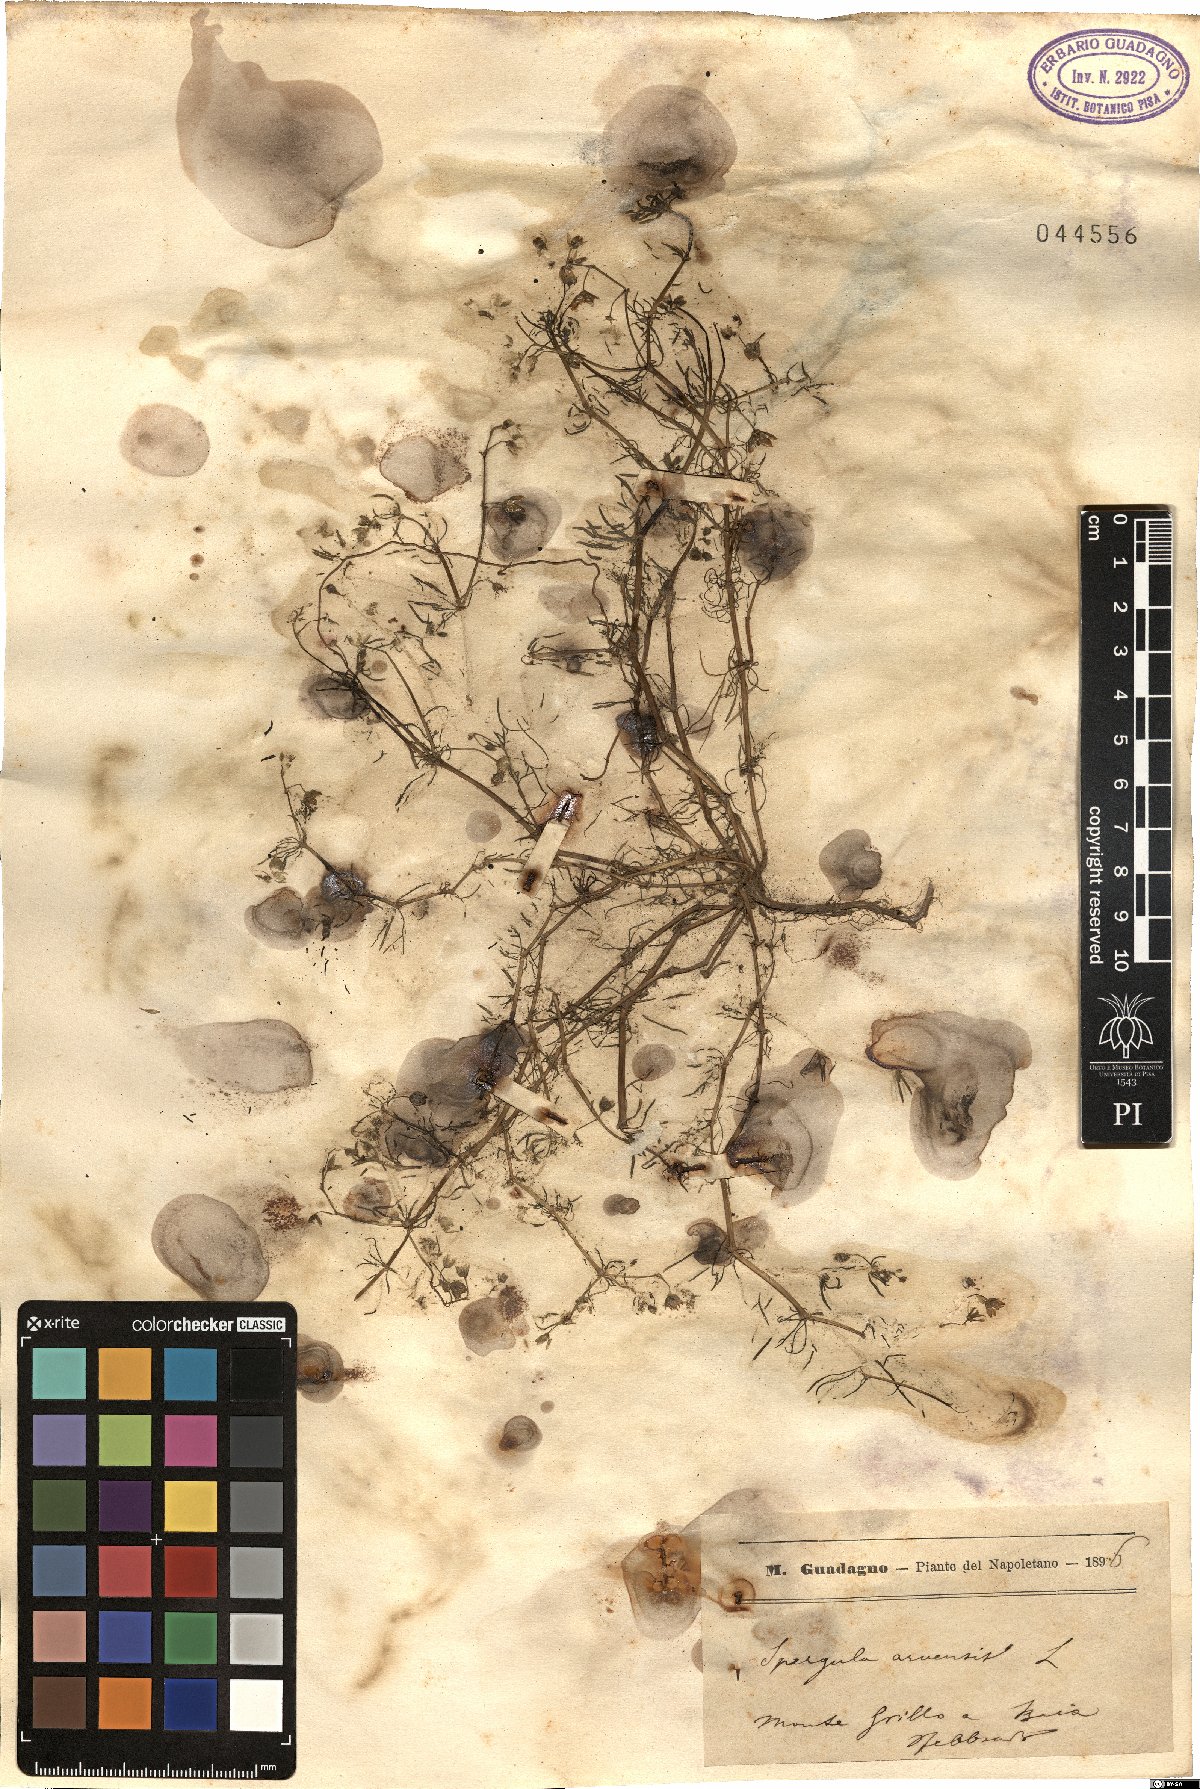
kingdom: Plantae
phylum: Tracheophyta
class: Magnoliopsida
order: Caryophyllales
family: Caryophyllaceae
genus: Spergula
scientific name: Spergula arvensis
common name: Corn spurrey
